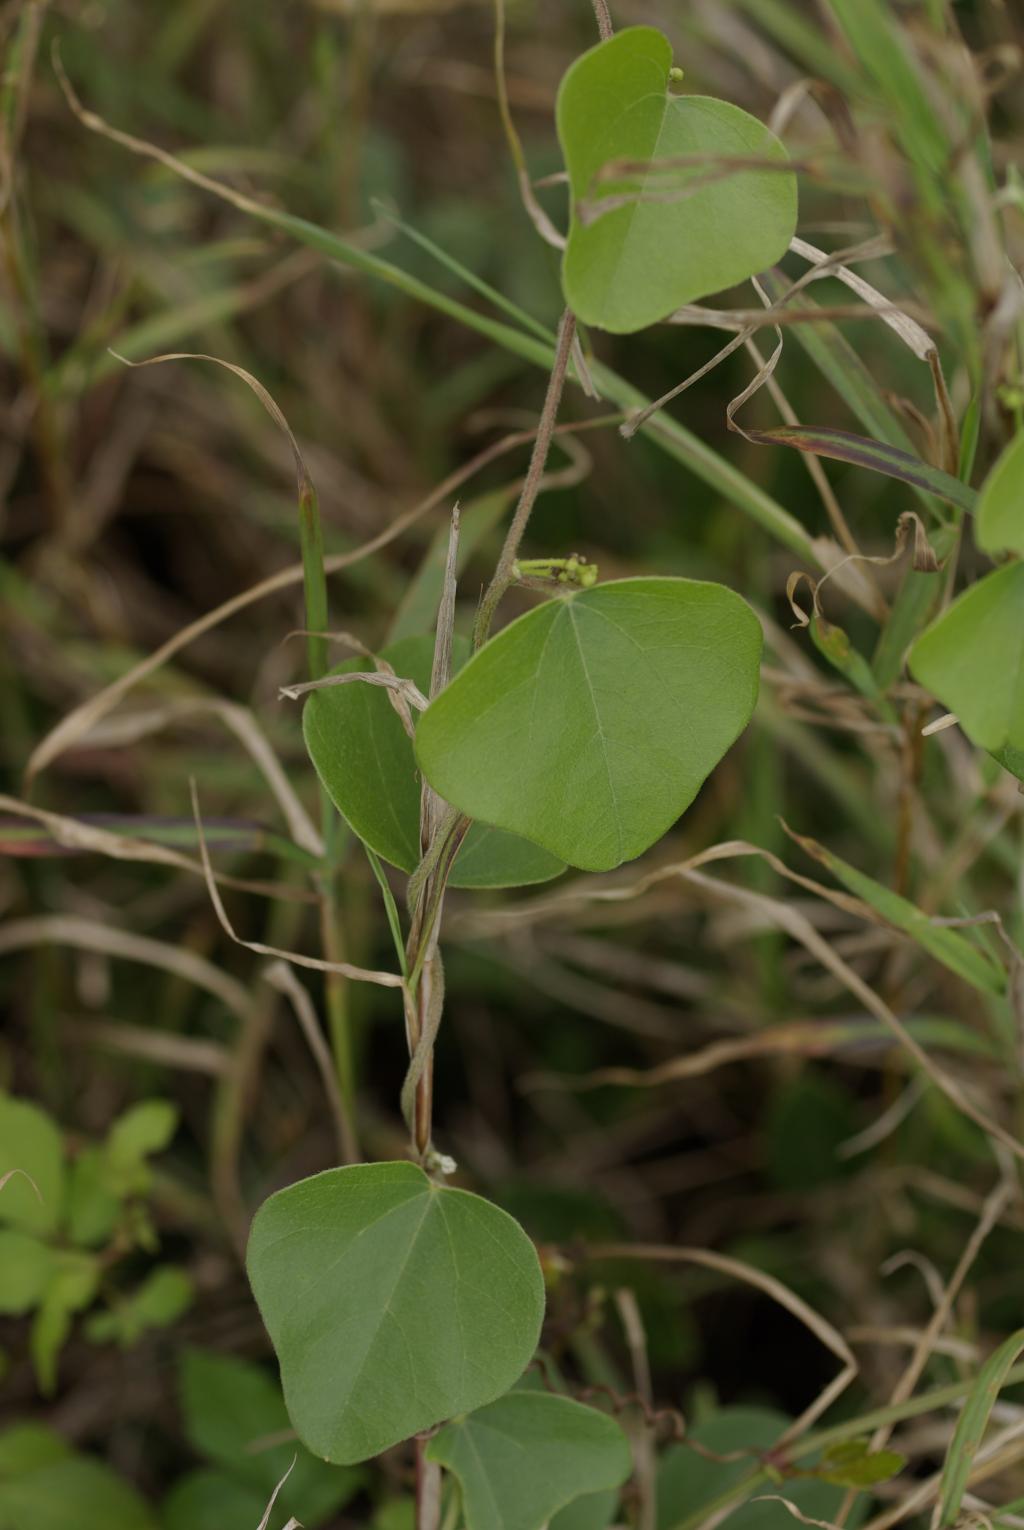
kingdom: Plantae
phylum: Tracheophyta
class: Magnoliopsida
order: Ranunculales
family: Menispermaceae
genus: Cocculus
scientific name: Cocculus orbiculatus
